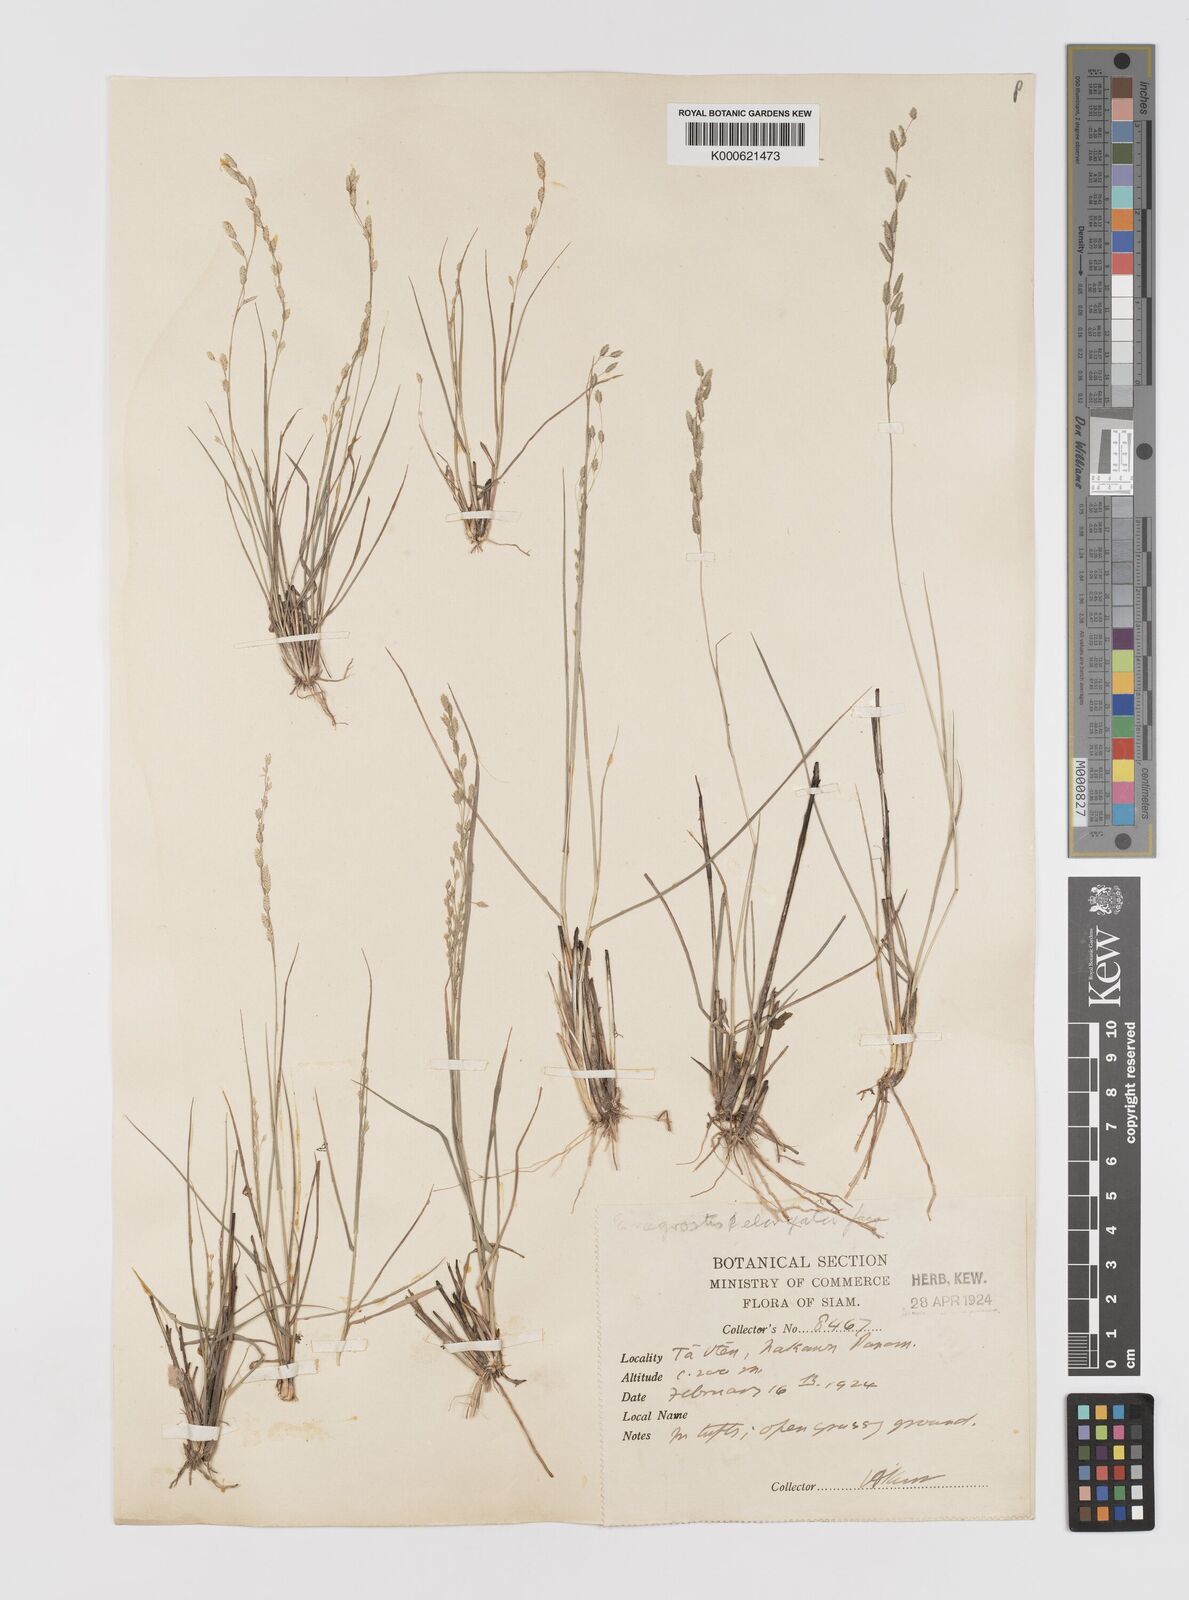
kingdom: Plantae
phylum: Tracheophyta
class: Liliopsida
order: Poales
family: Poaceae
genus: Eragrostis
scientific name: Eragrostis brownii
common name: Lovegrass
